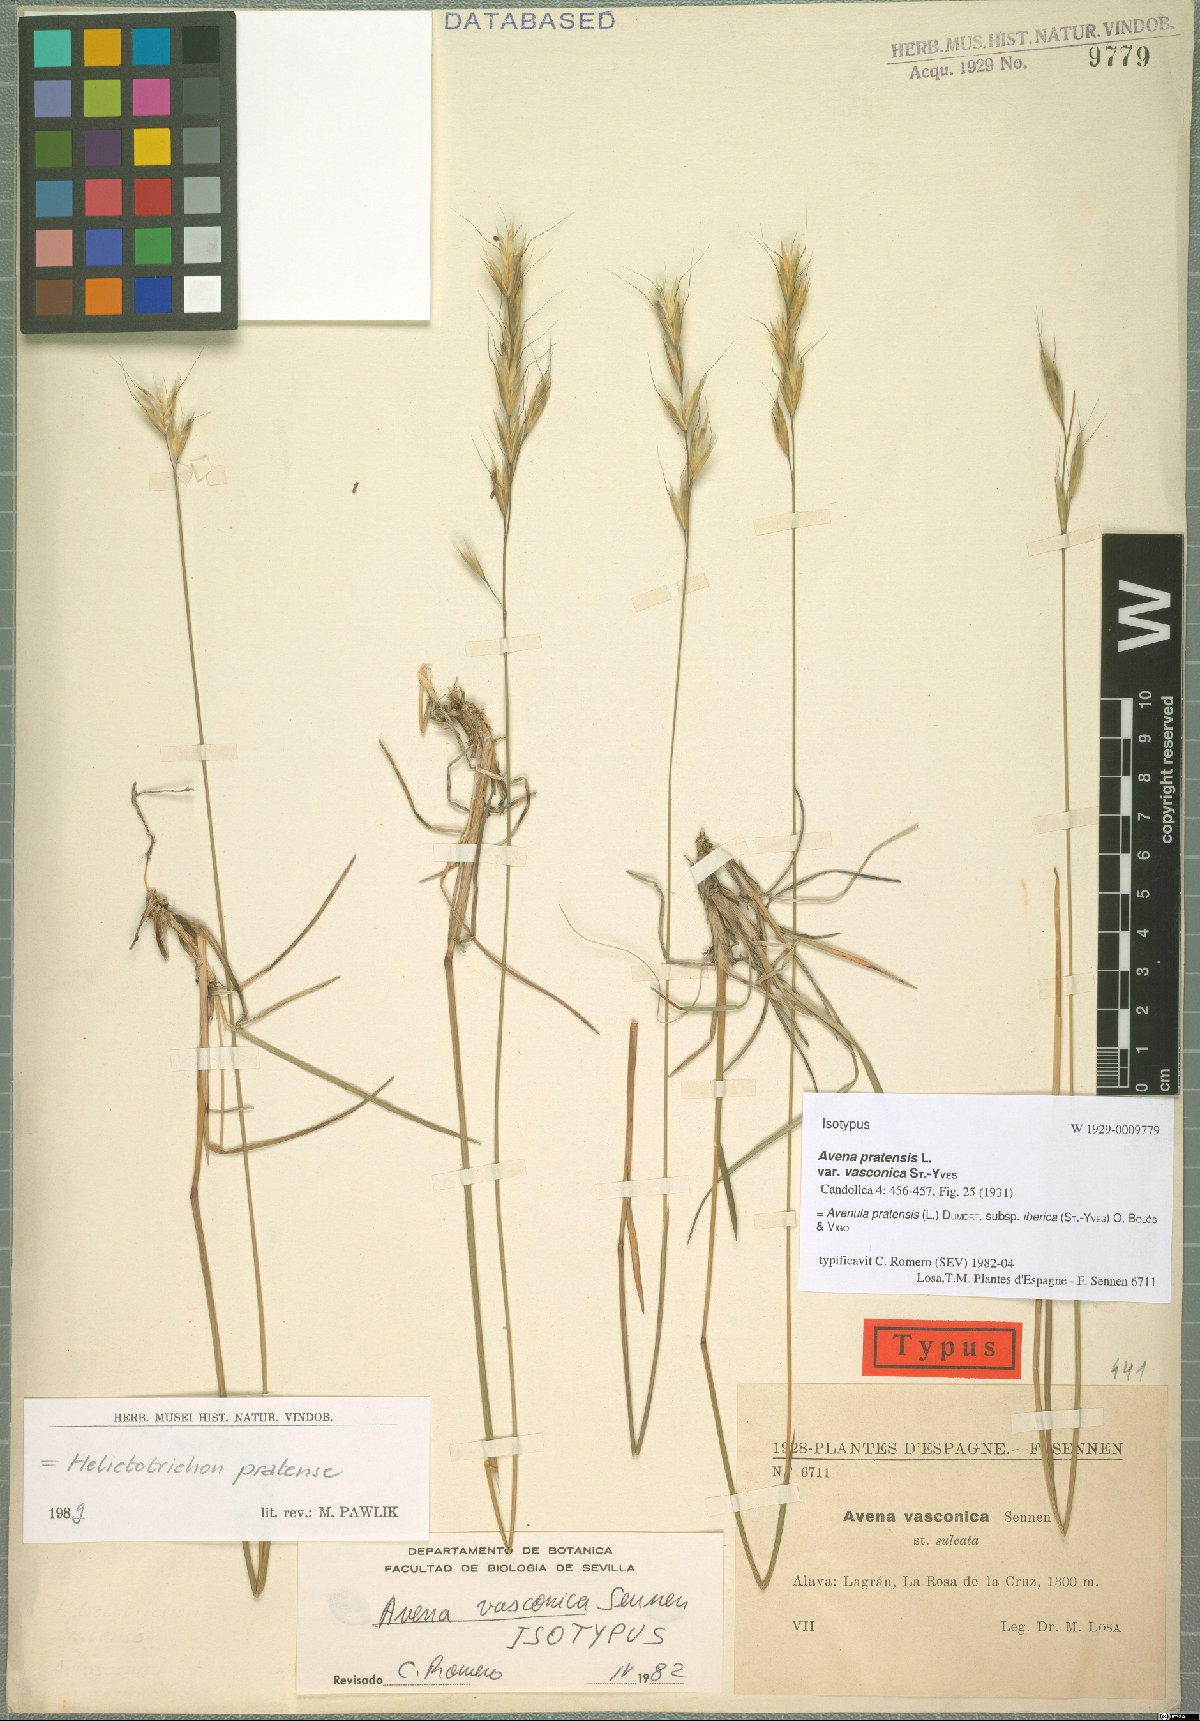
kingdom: Plantae
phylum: Tracheophyta
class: Liliopsida
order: Poales
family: Poaceae
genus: Helictochloa
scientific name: Helictochloa pratensis
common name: Meadow oat grass
